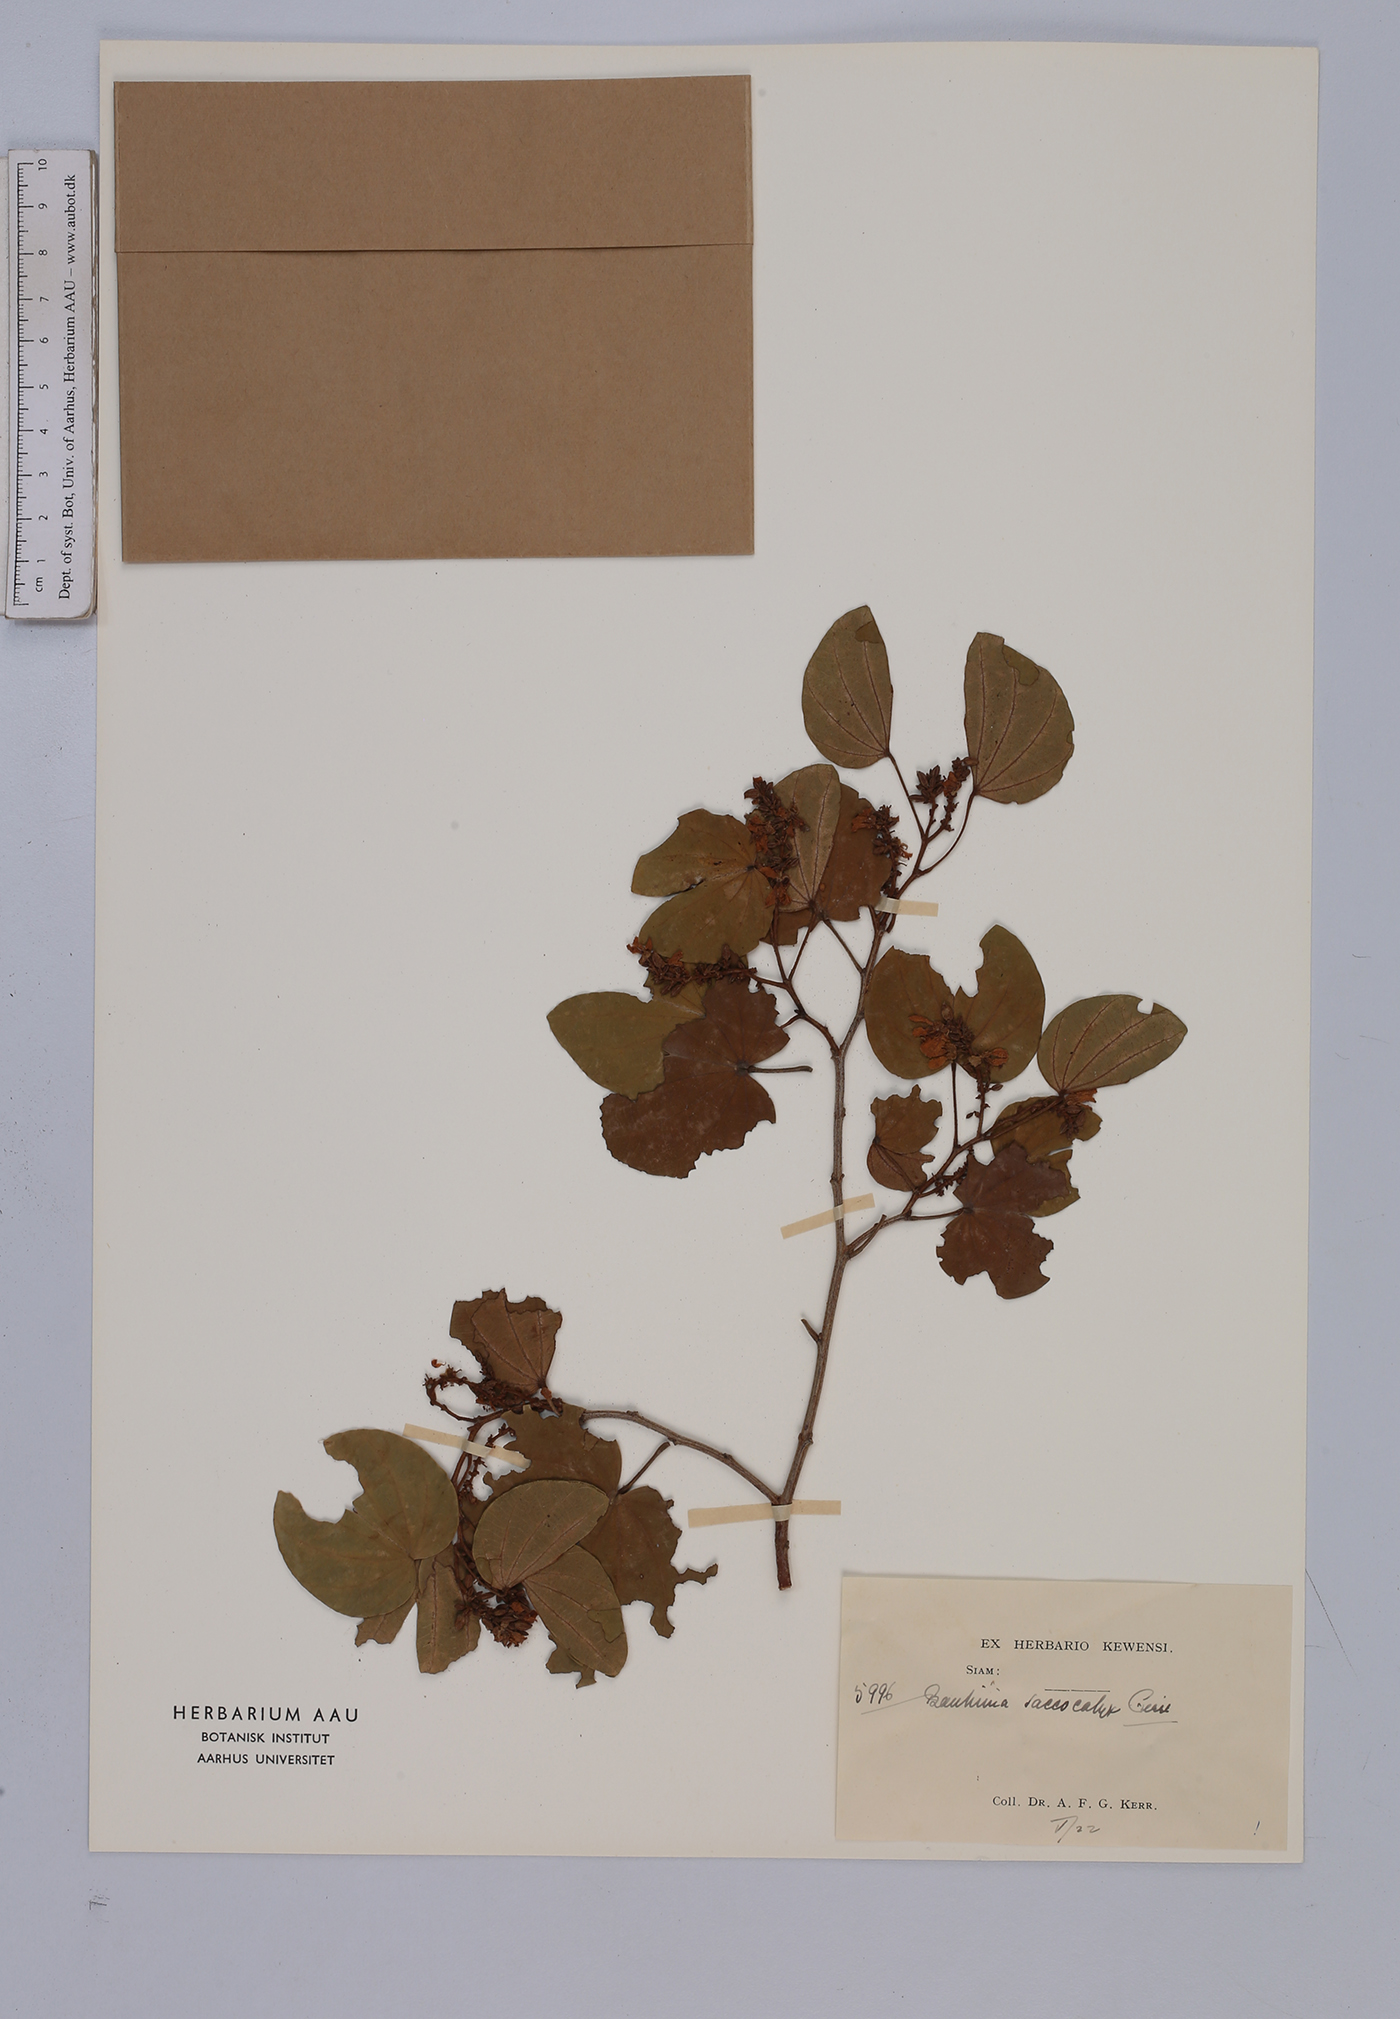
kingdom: Plantae
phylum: Tracheophyta
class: Magnoliopsida
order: Fabales
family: Fabaceae
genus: Bauhinia
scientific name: Bauhinia saccocalyx
